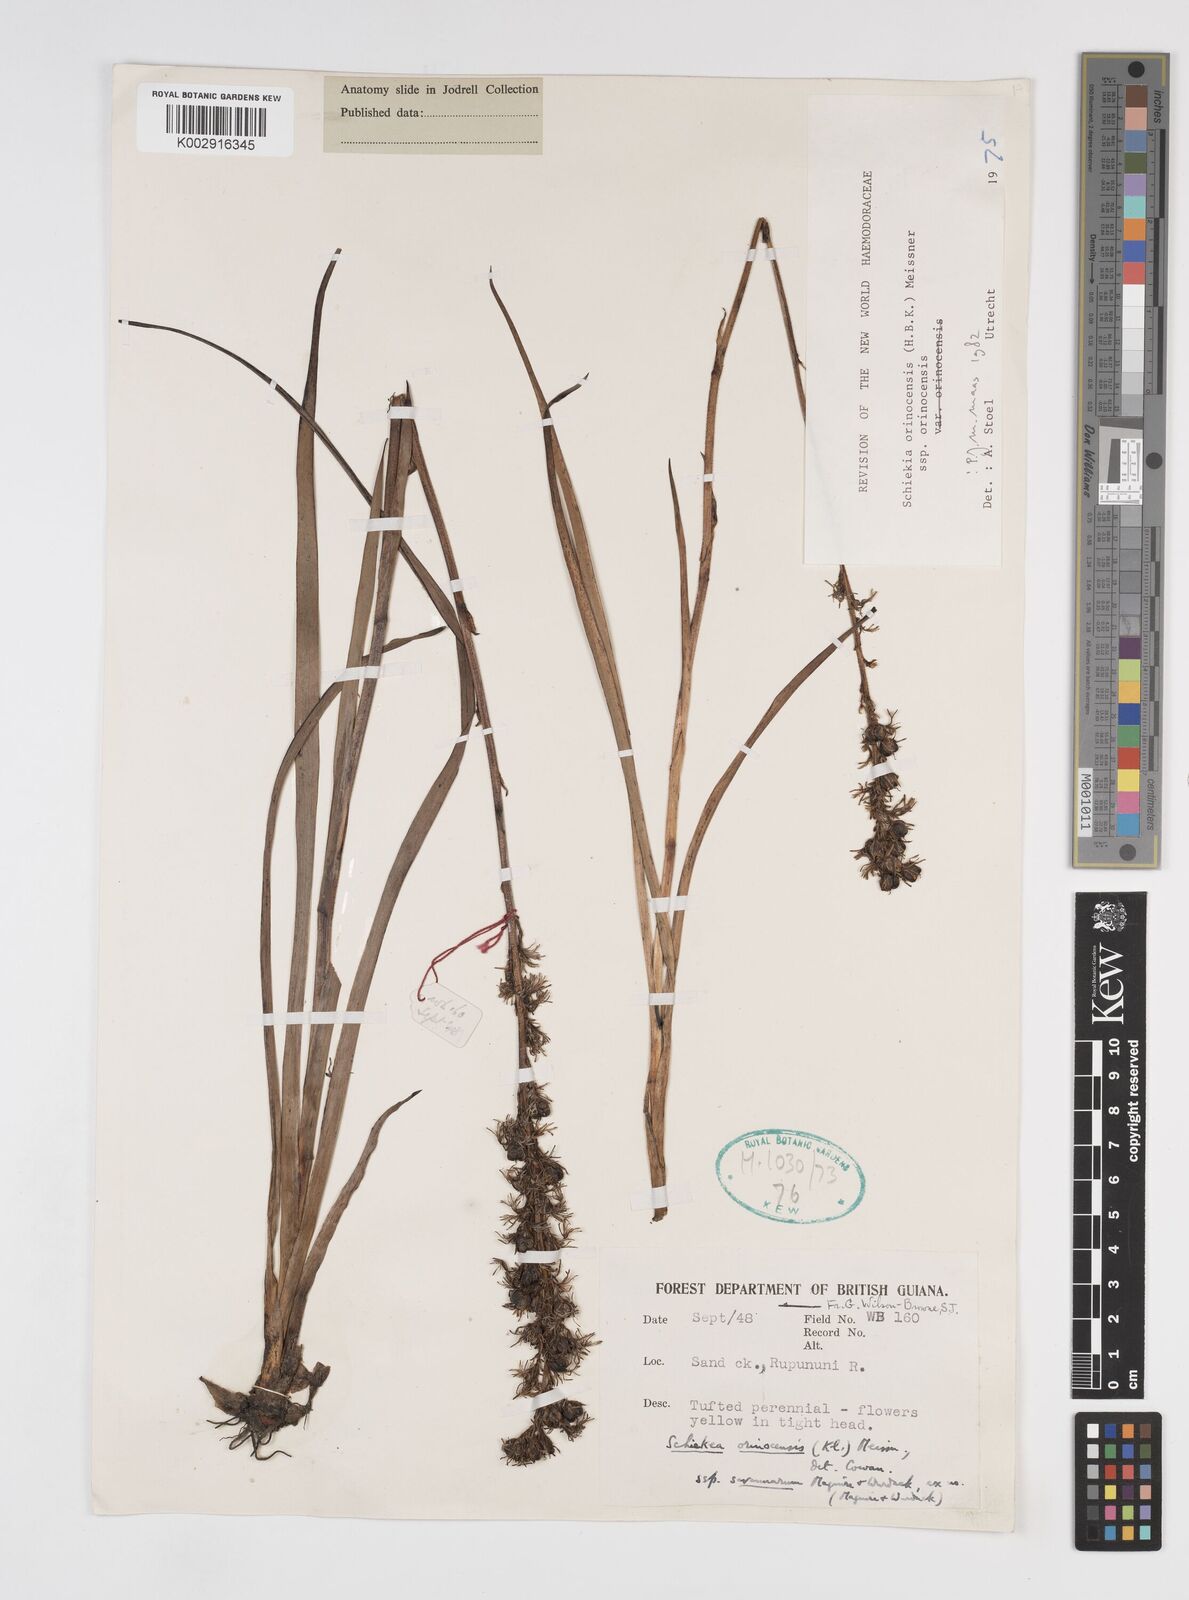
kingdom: Plantae
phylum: Tracheophyta
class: Liliopsida
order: Commelinales
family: Haemodoraceae
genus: Schiekia
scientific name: Schiekia orinocensis
